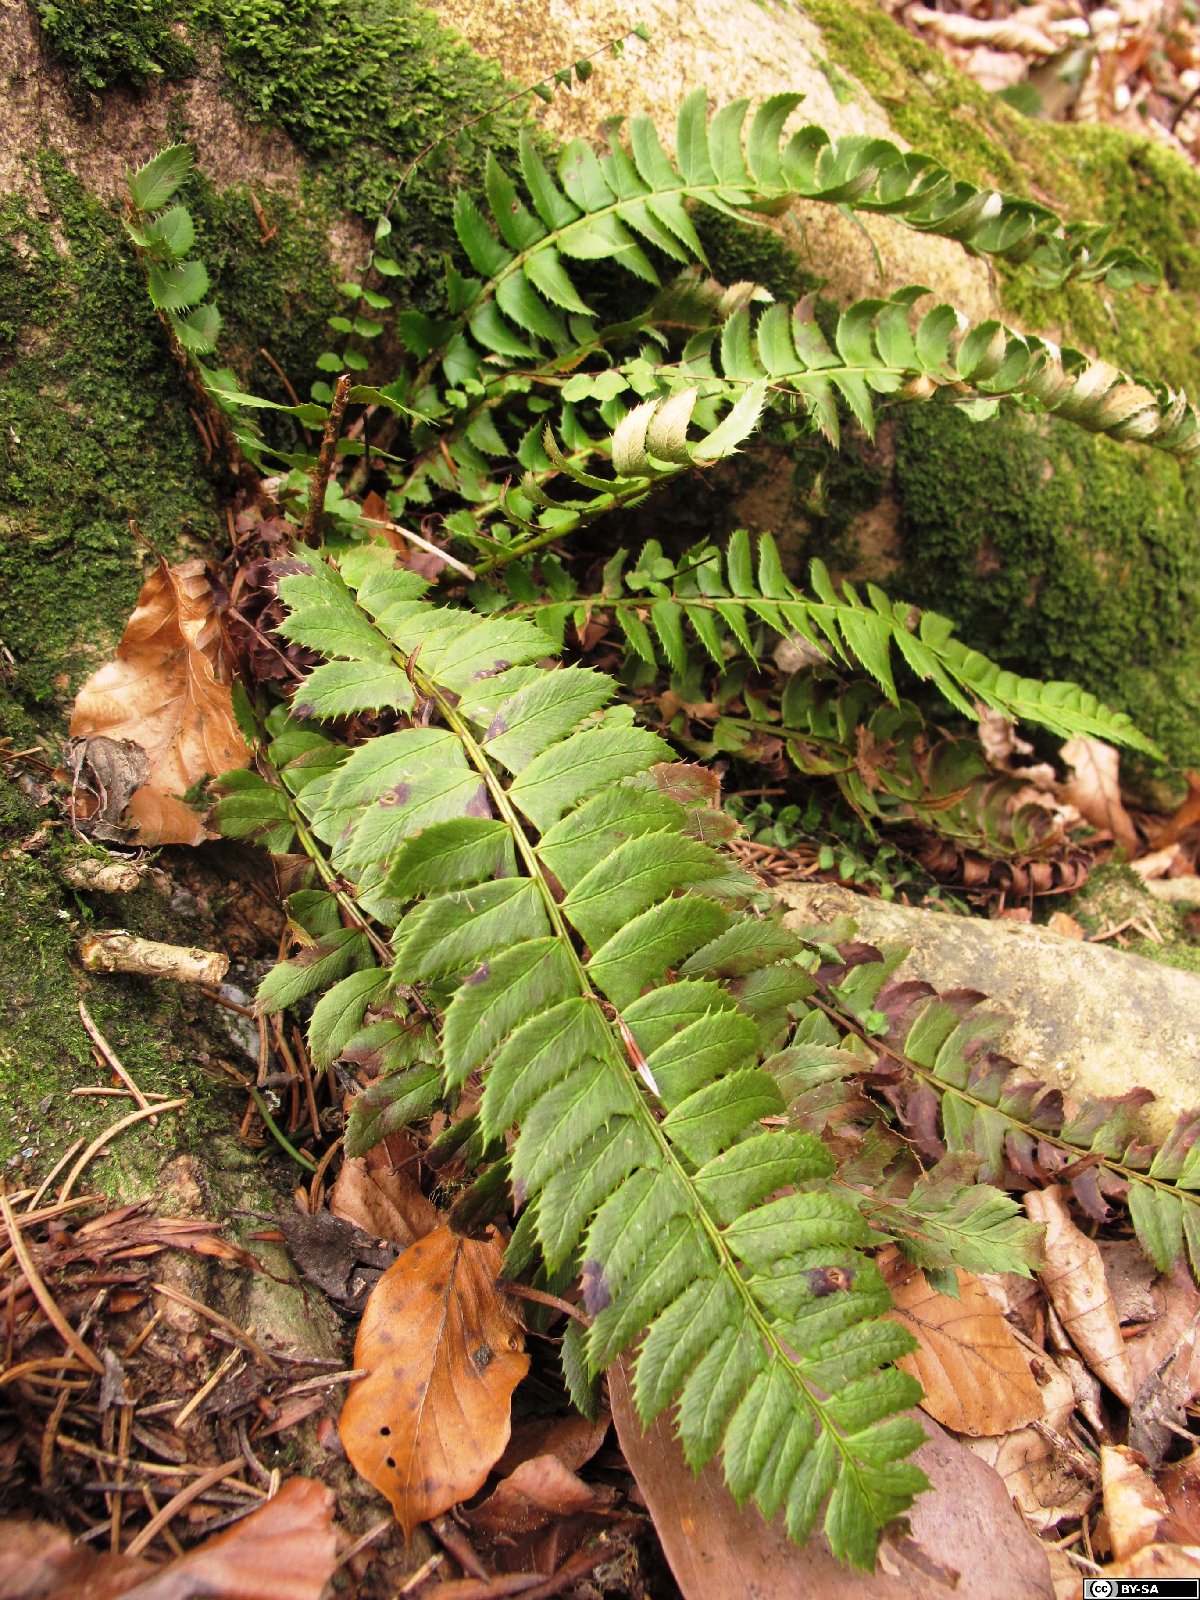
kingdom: Plantae
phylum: Tracheophyta
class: Polypodiopsida
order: Polypodiales
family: Dryopteridaceae
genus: Polystichum
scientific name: Polystichum lonchitis
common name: Holly fern
